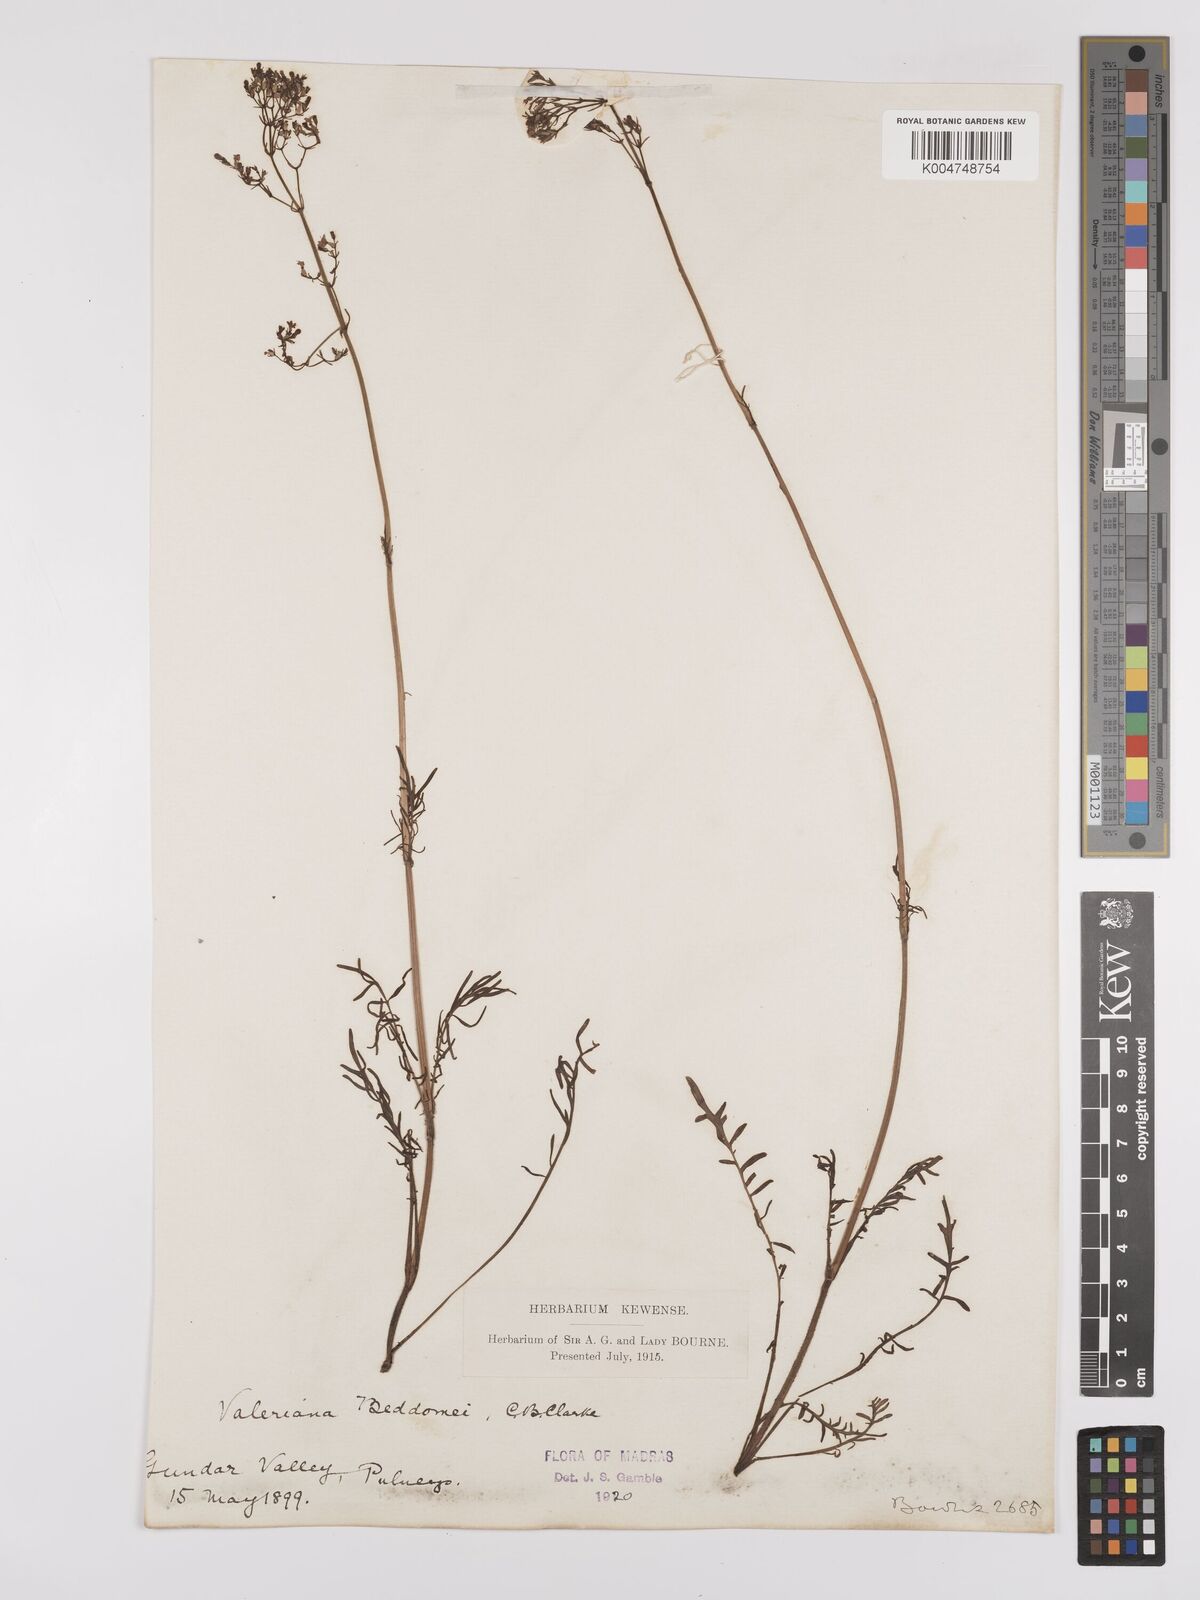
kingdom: Plantae
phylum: Tracheophyta
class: Magnoliopsida
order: Dipsacales
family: Caprifoliaceae
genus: Valeriana
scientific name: Valeriana beddomei
